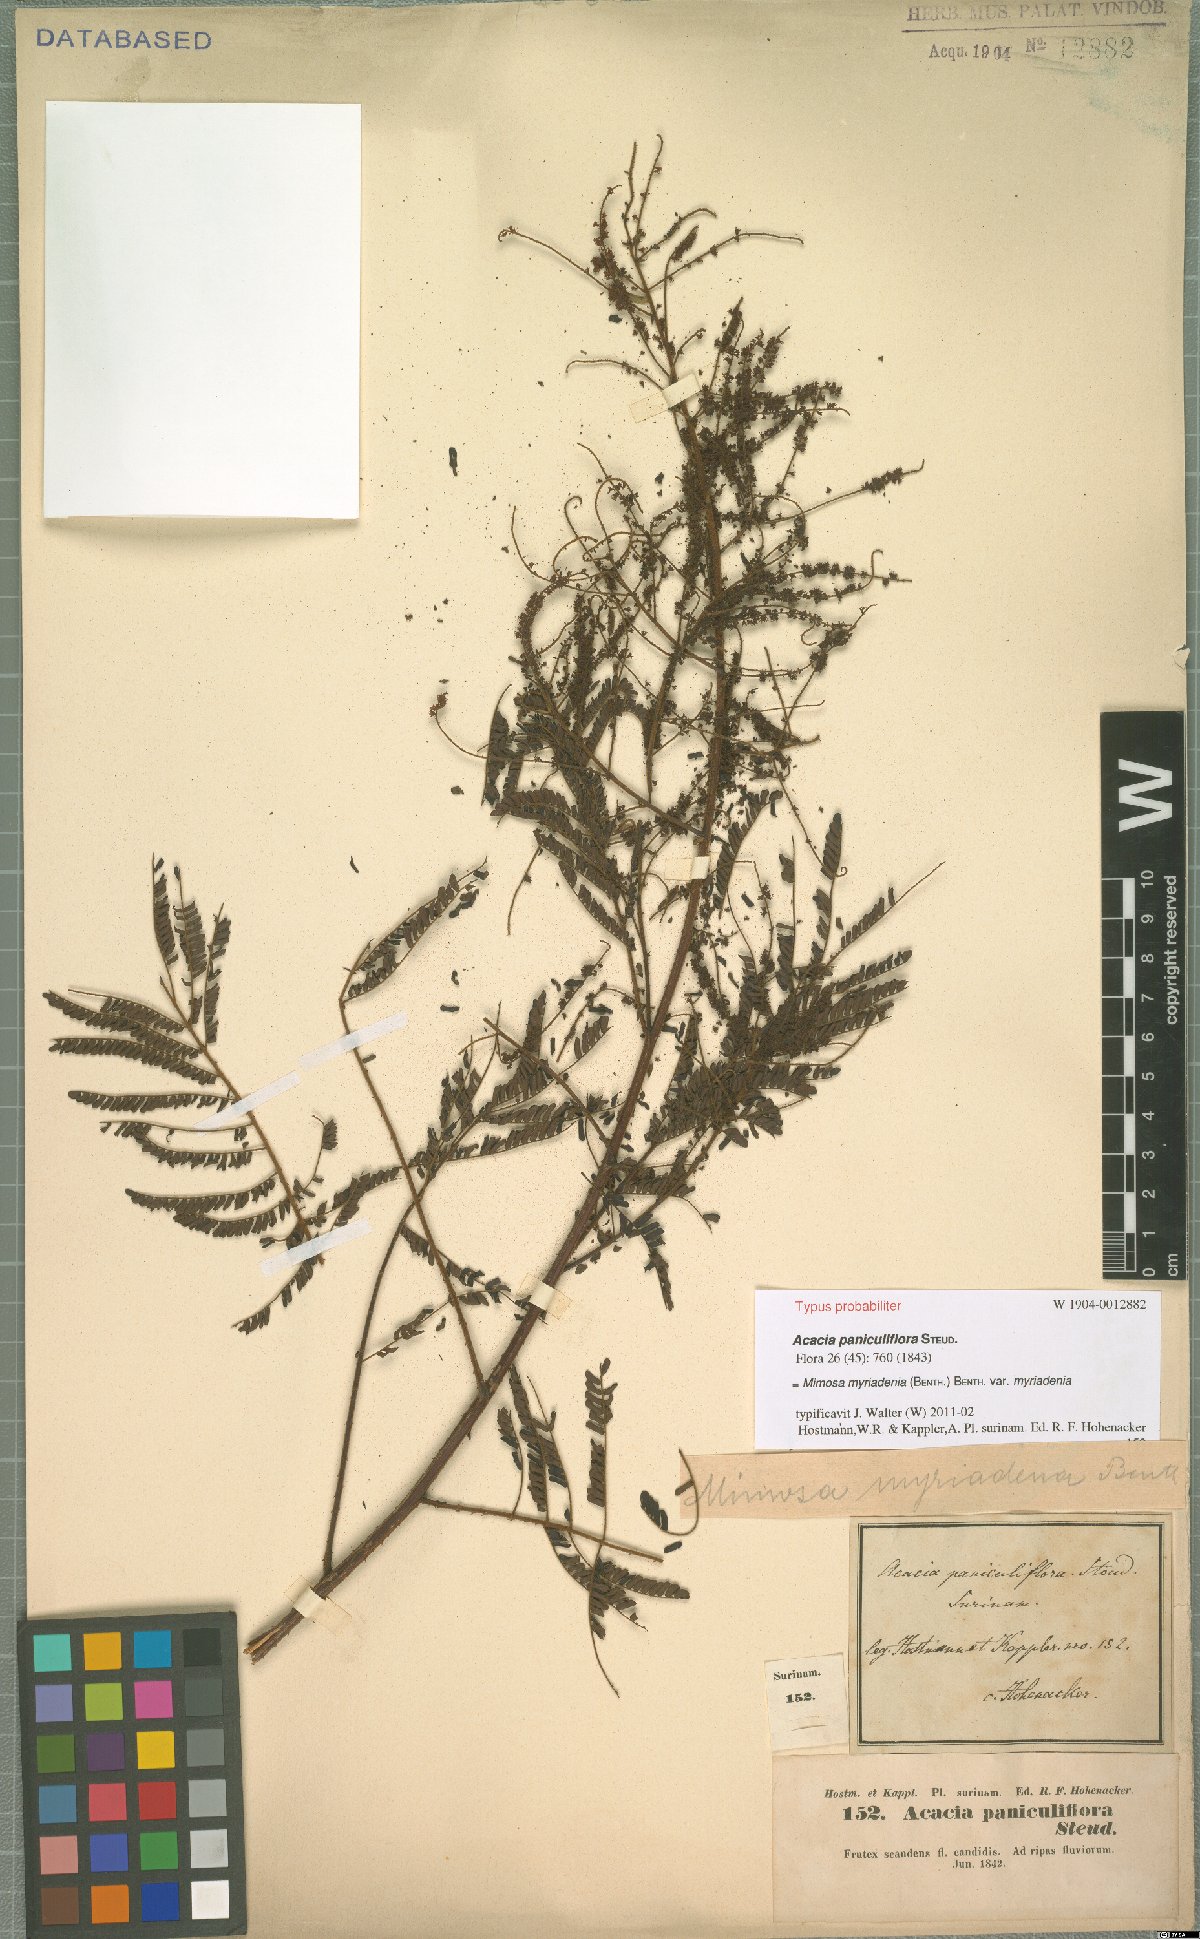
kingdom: Plantae
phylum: Tracheophyta
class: Magnoliopsida
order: Fabales
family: Fabaceae
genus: Mimosa
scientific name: Mimosa myriadenia
